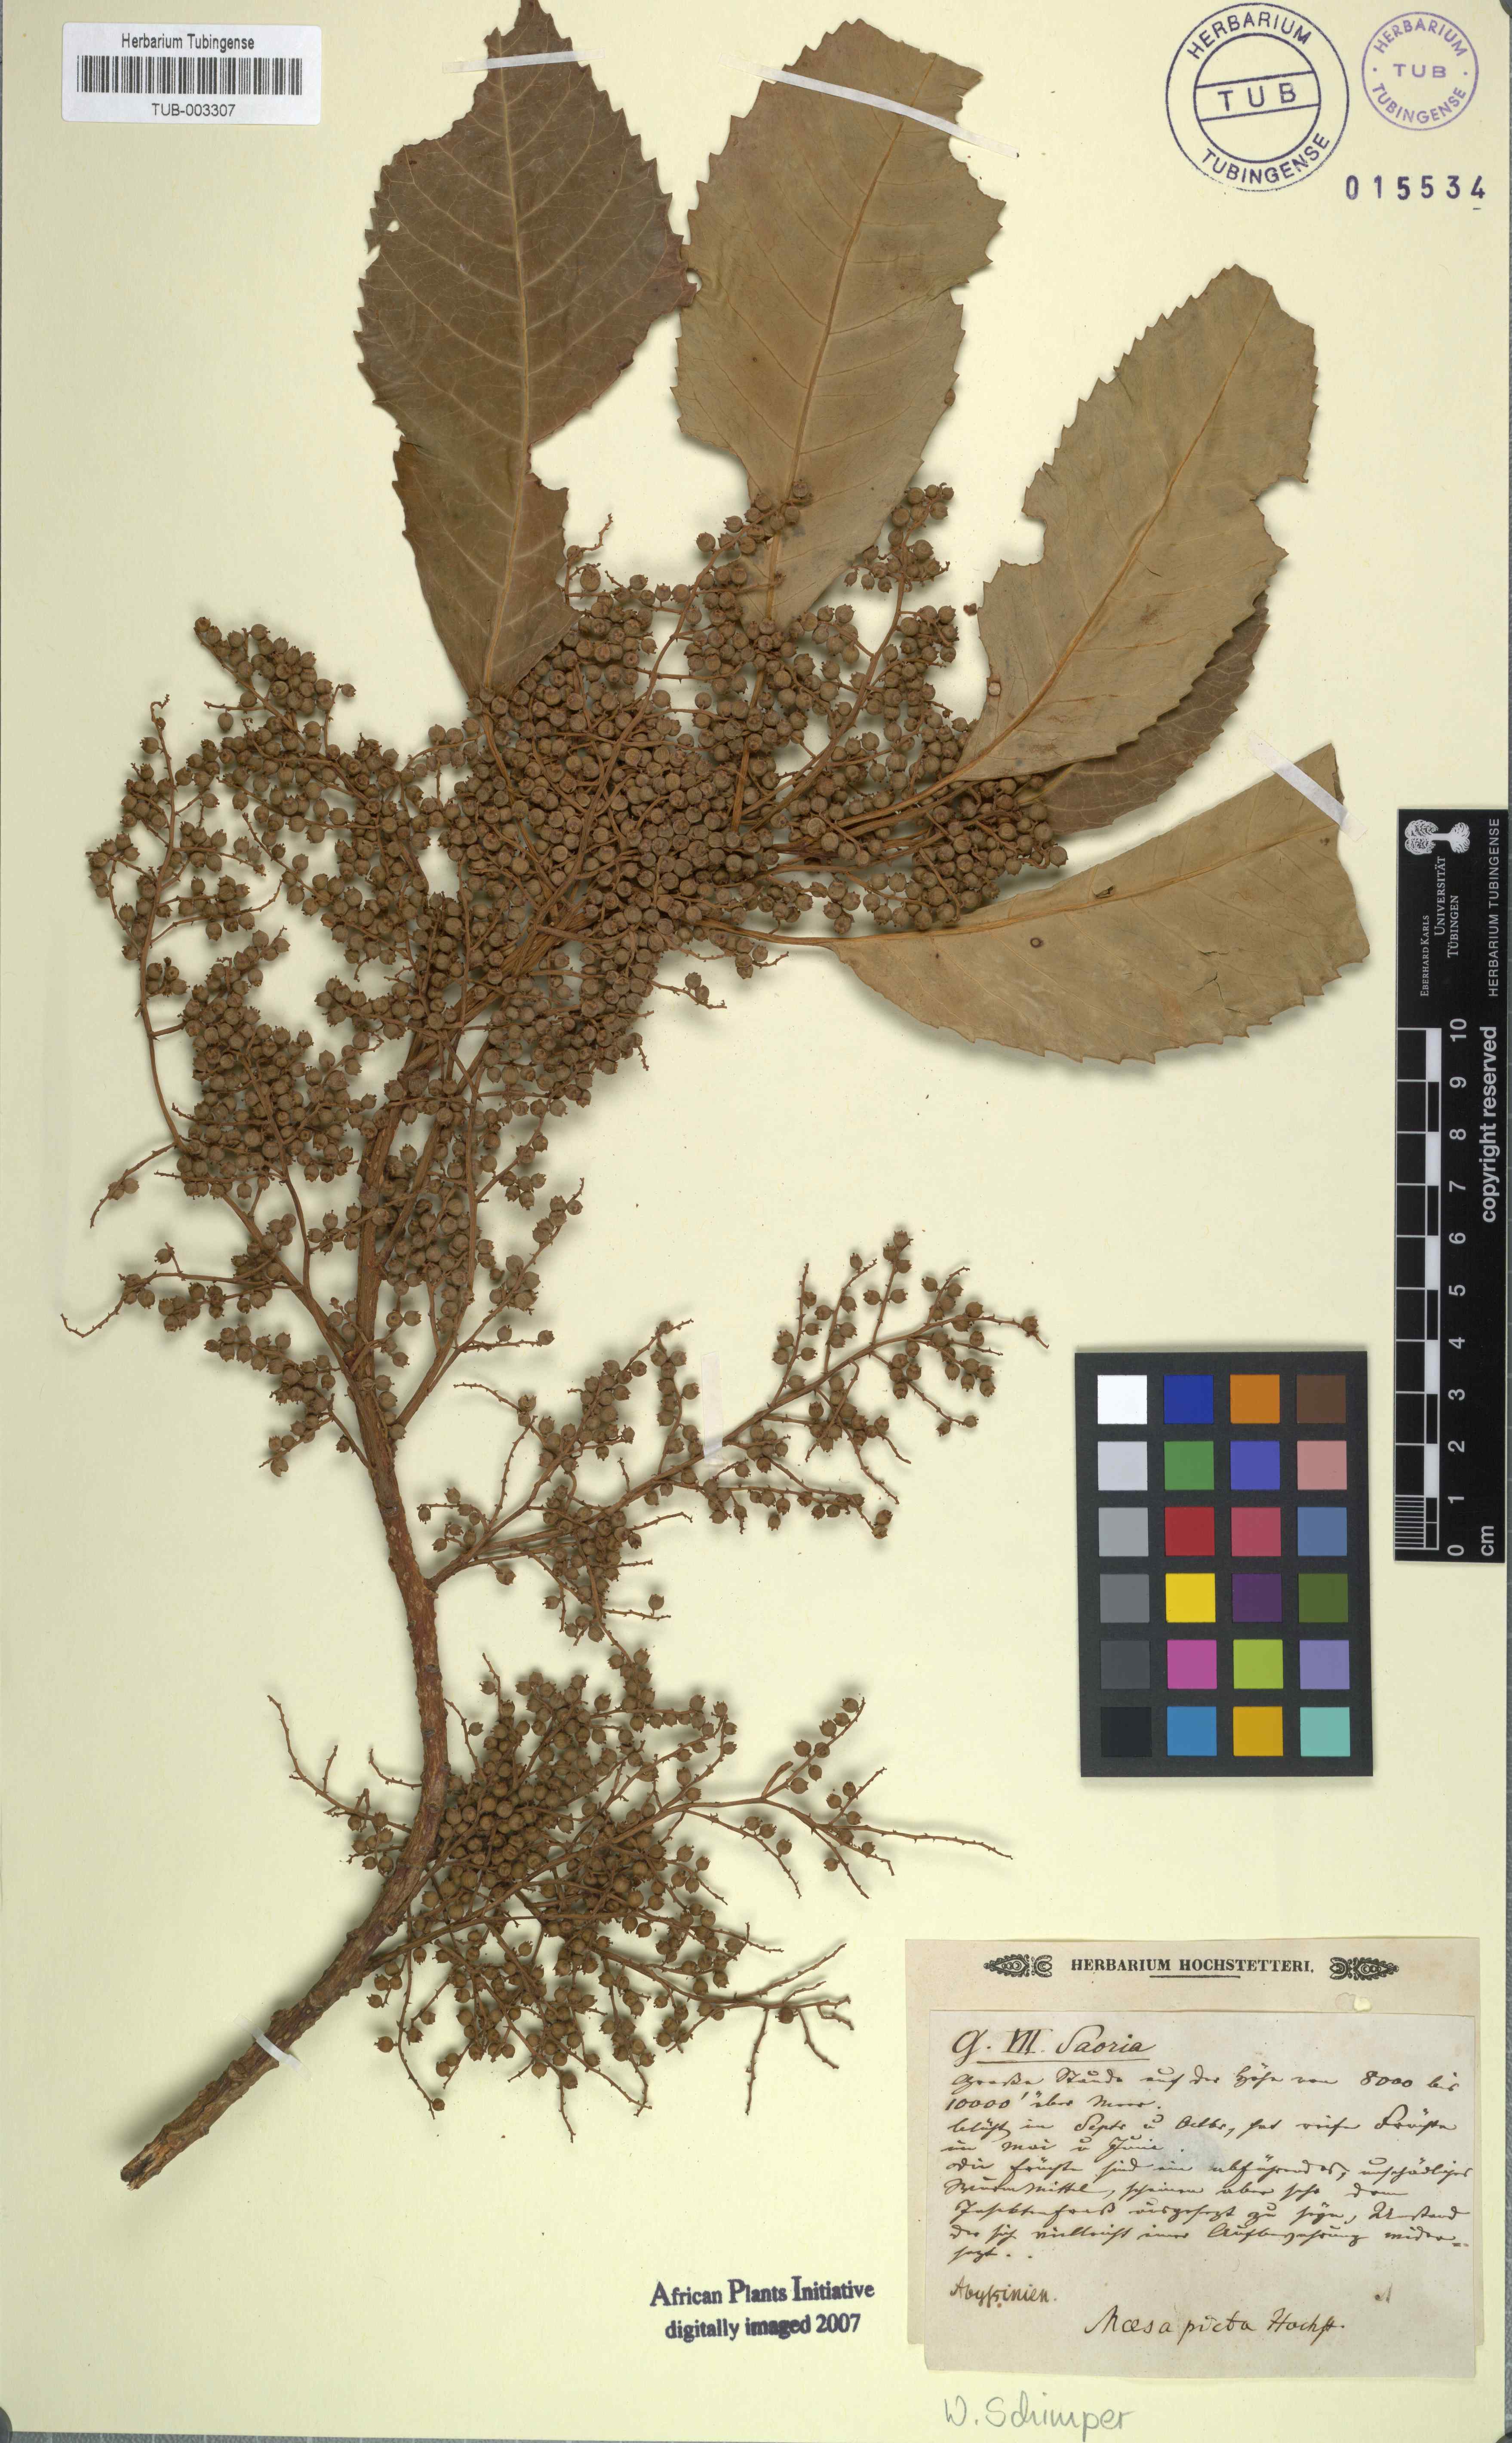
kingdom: Plantae
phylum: Tracheophyta
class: Magnoliopsida
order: Ericales
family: Primulaceae
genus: Maesa
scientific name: Maesa lanceolata
